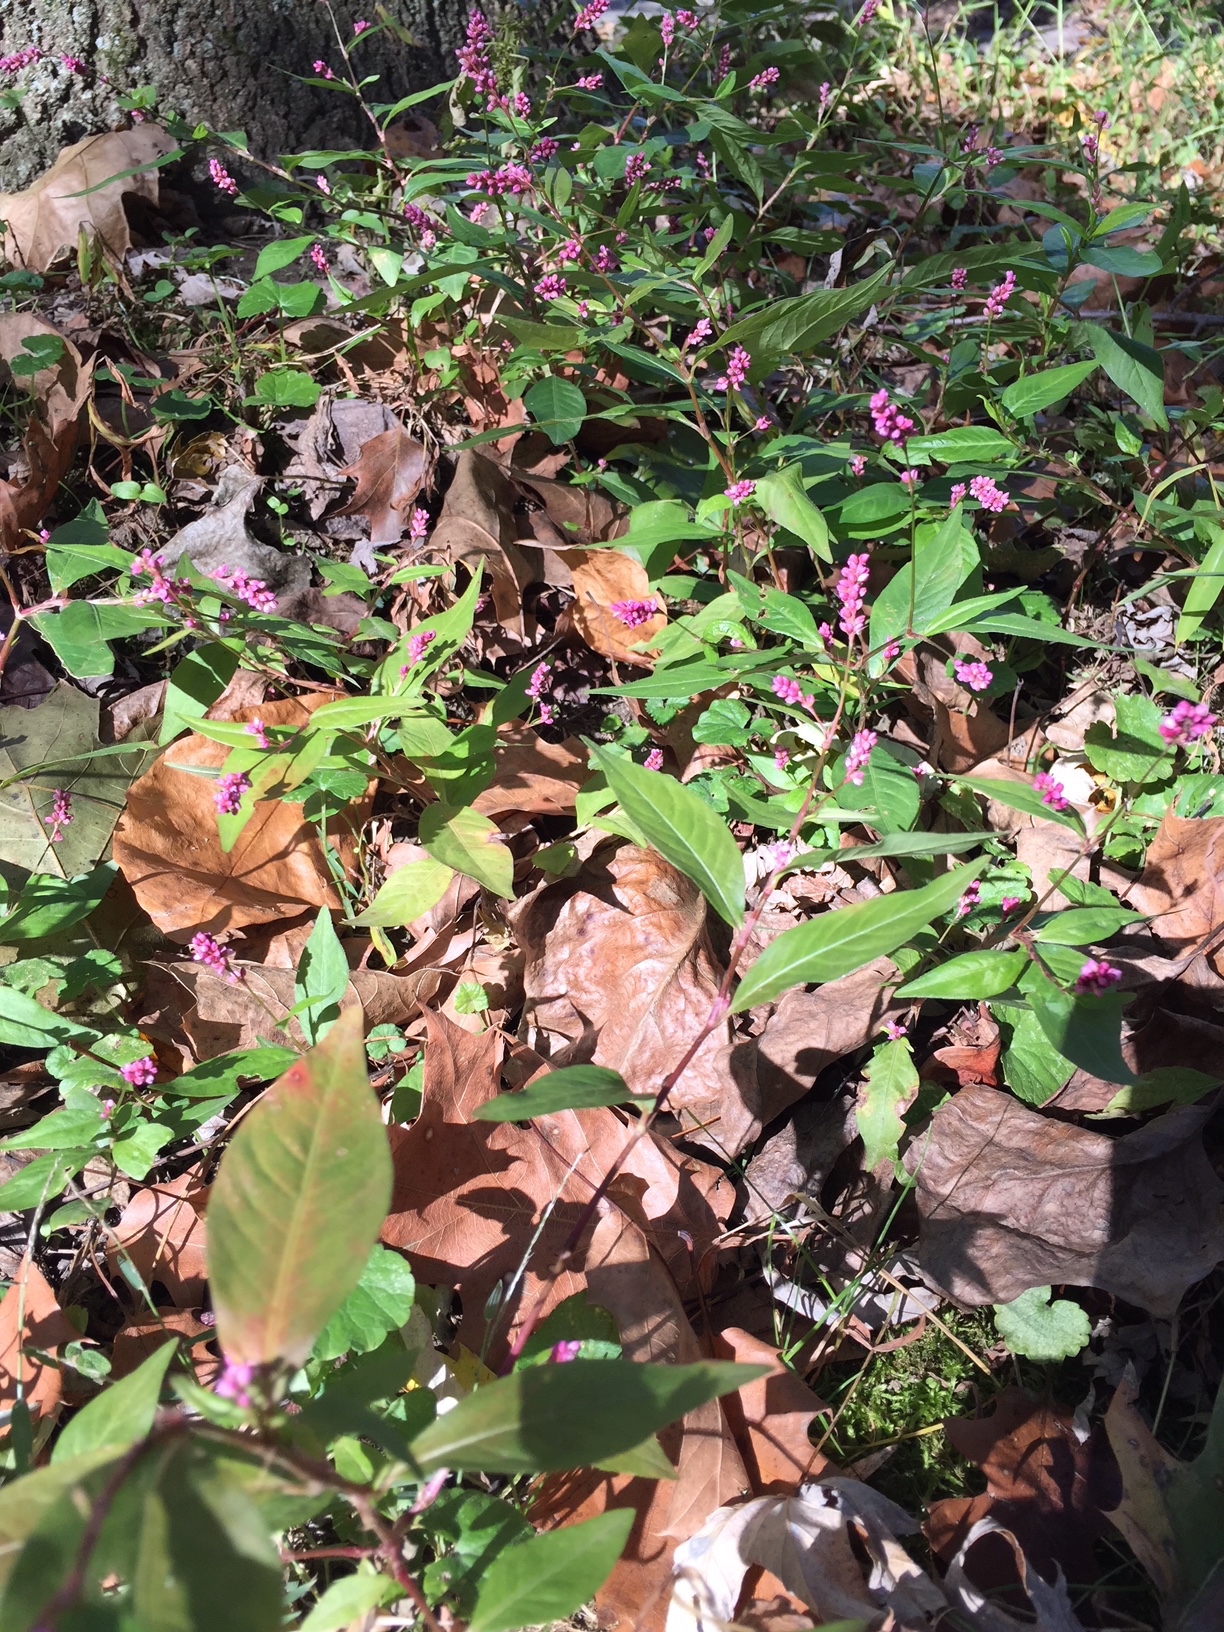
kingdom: Plantae
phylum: Tracheophyta
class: Magnoliopsida
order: Caryophyllales
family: Polygonaceae
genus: Persicaria
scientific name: Persicaria longiseta
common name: Low Smartweed
